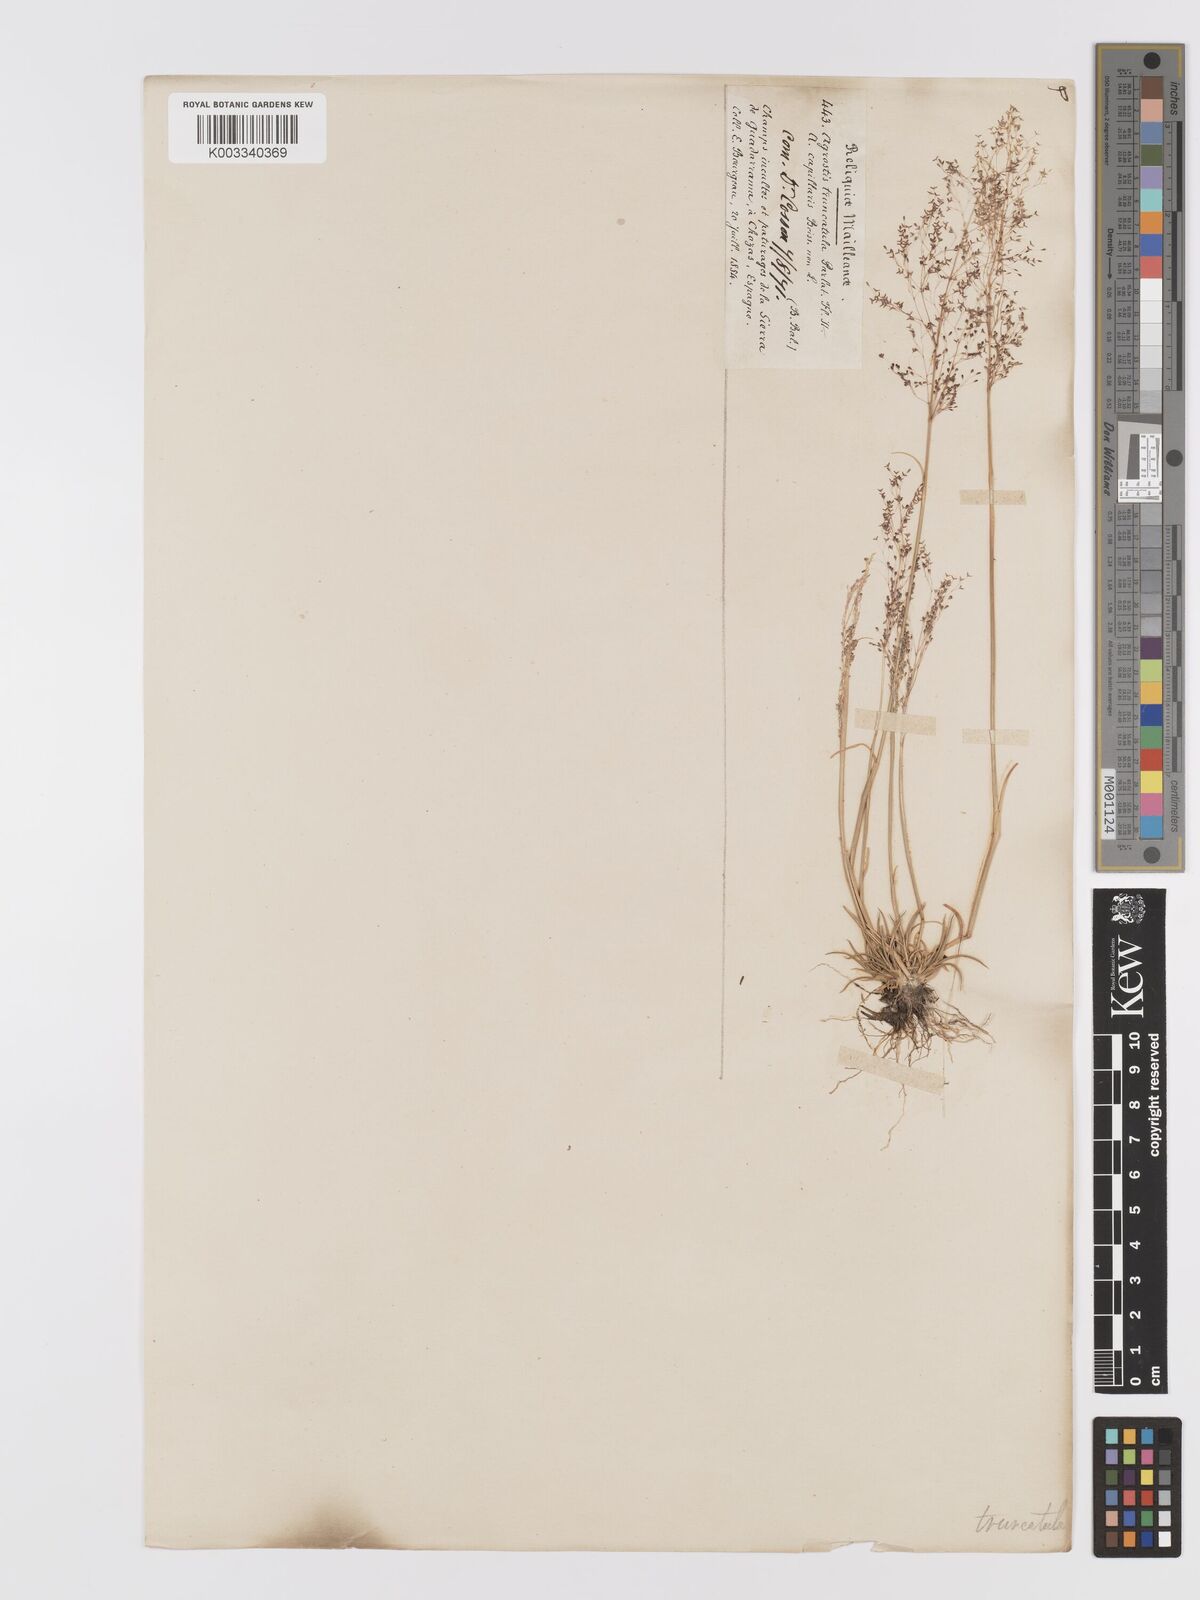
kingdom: Plantae
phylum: Tracheophyta
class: Liliopsida
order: Poales
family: Poaceae
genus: Agrostis
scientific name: Agrostis castellana
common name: Highland bent
